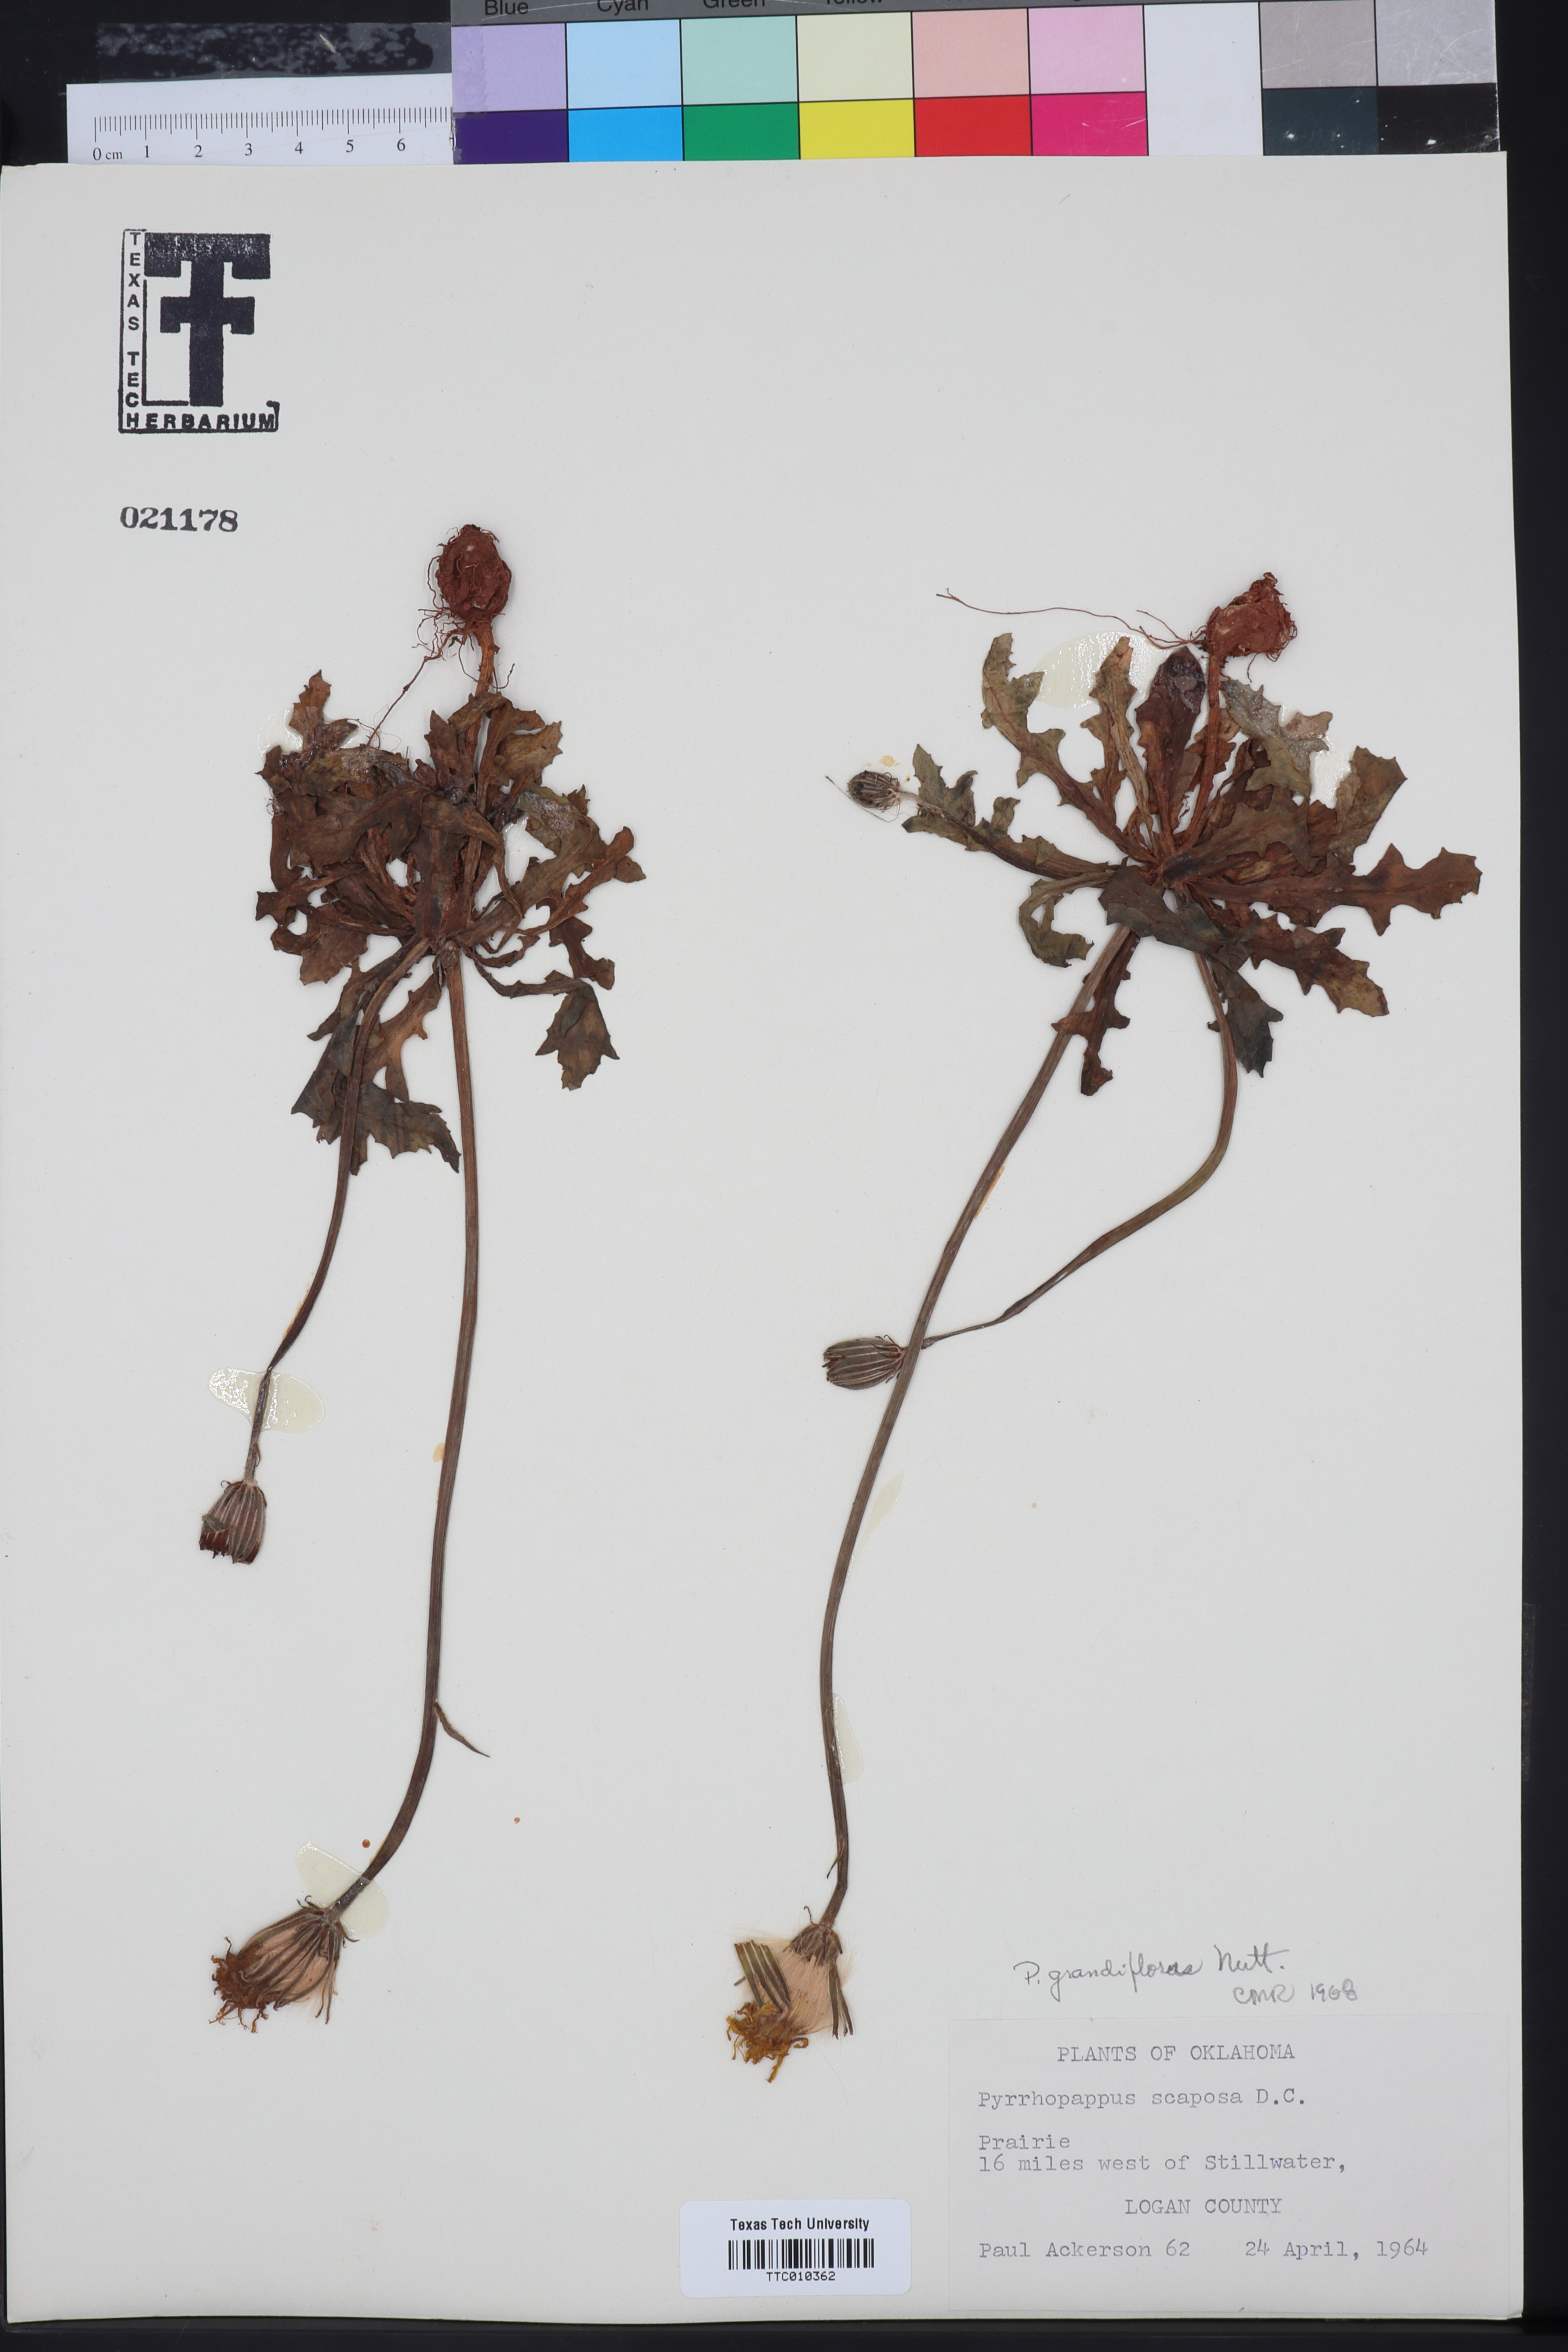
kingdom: Plantae
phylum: Tracheophyta
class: Magnoliopsida
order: Asterales
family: Asteraceae
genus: Pyrrhopappus
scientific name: Pyrrhopappus grandiflorus
